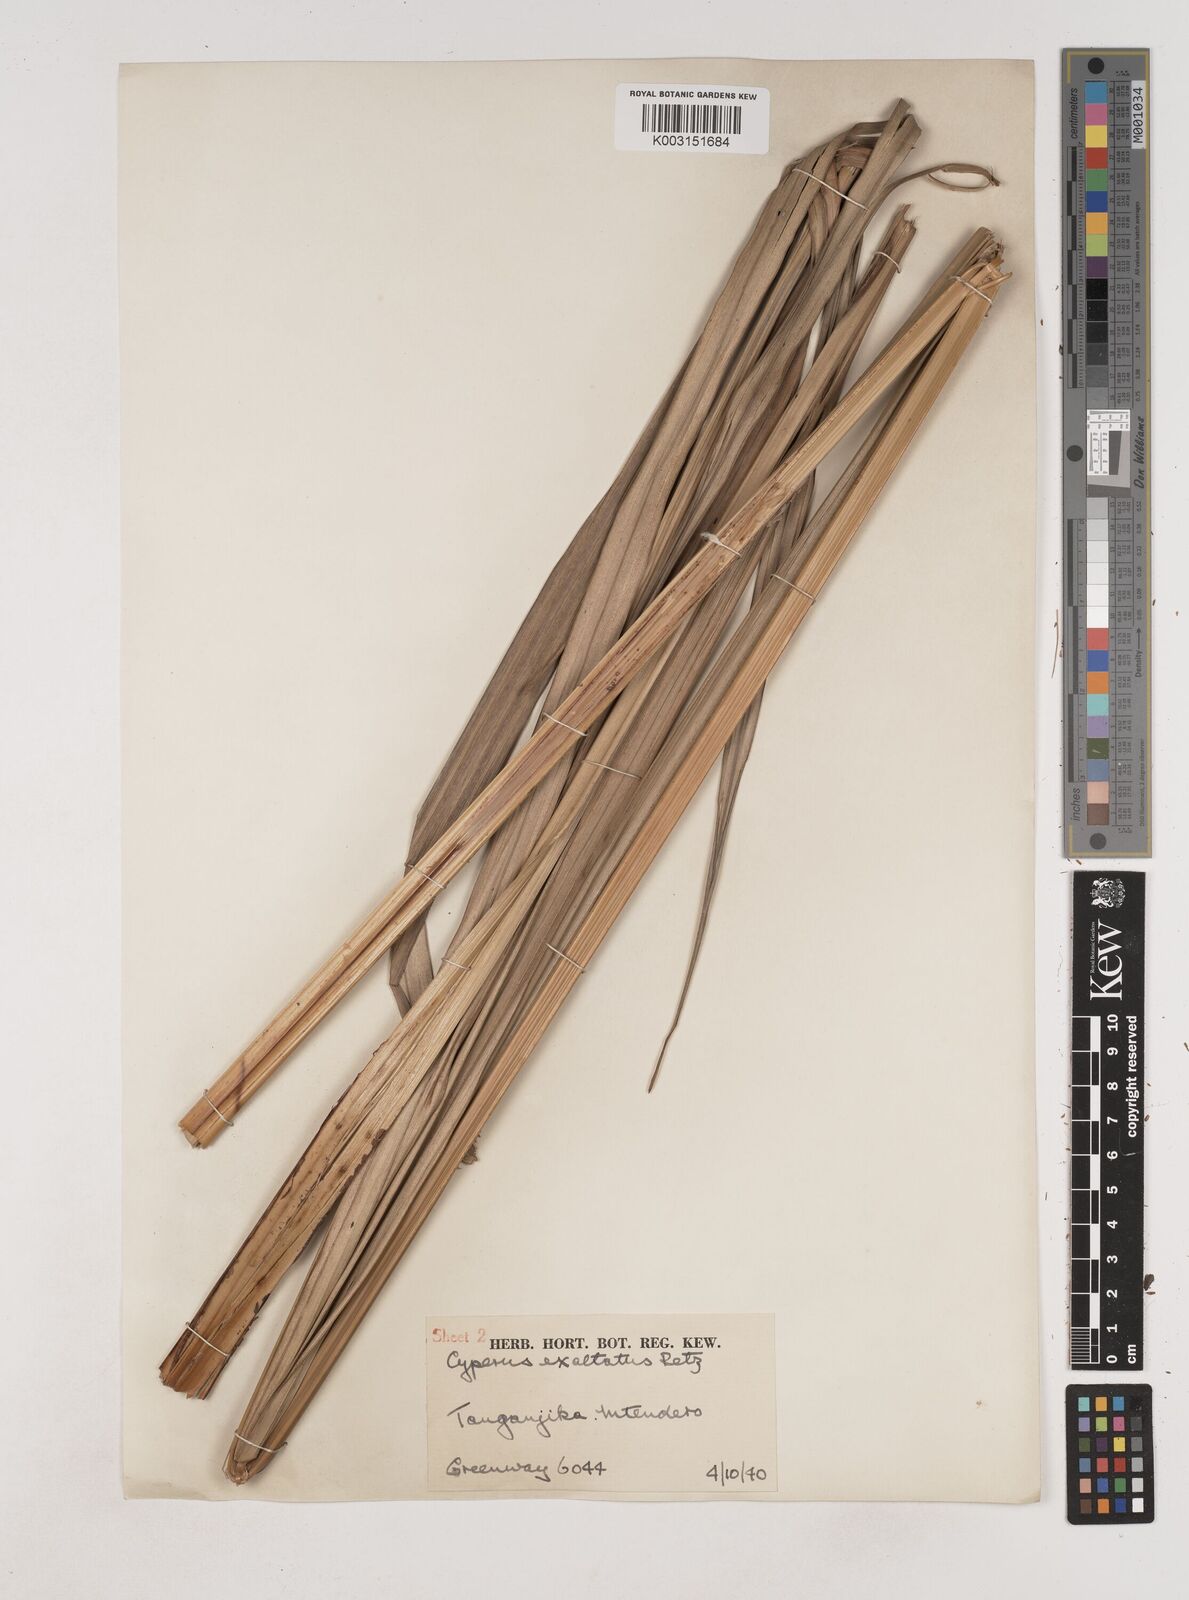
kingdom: Plantae
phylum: Tracheophyta
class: Liliopsida
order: Poales
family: Cyperaceae
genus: Cyperus
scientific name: Cyperus exaltatus
